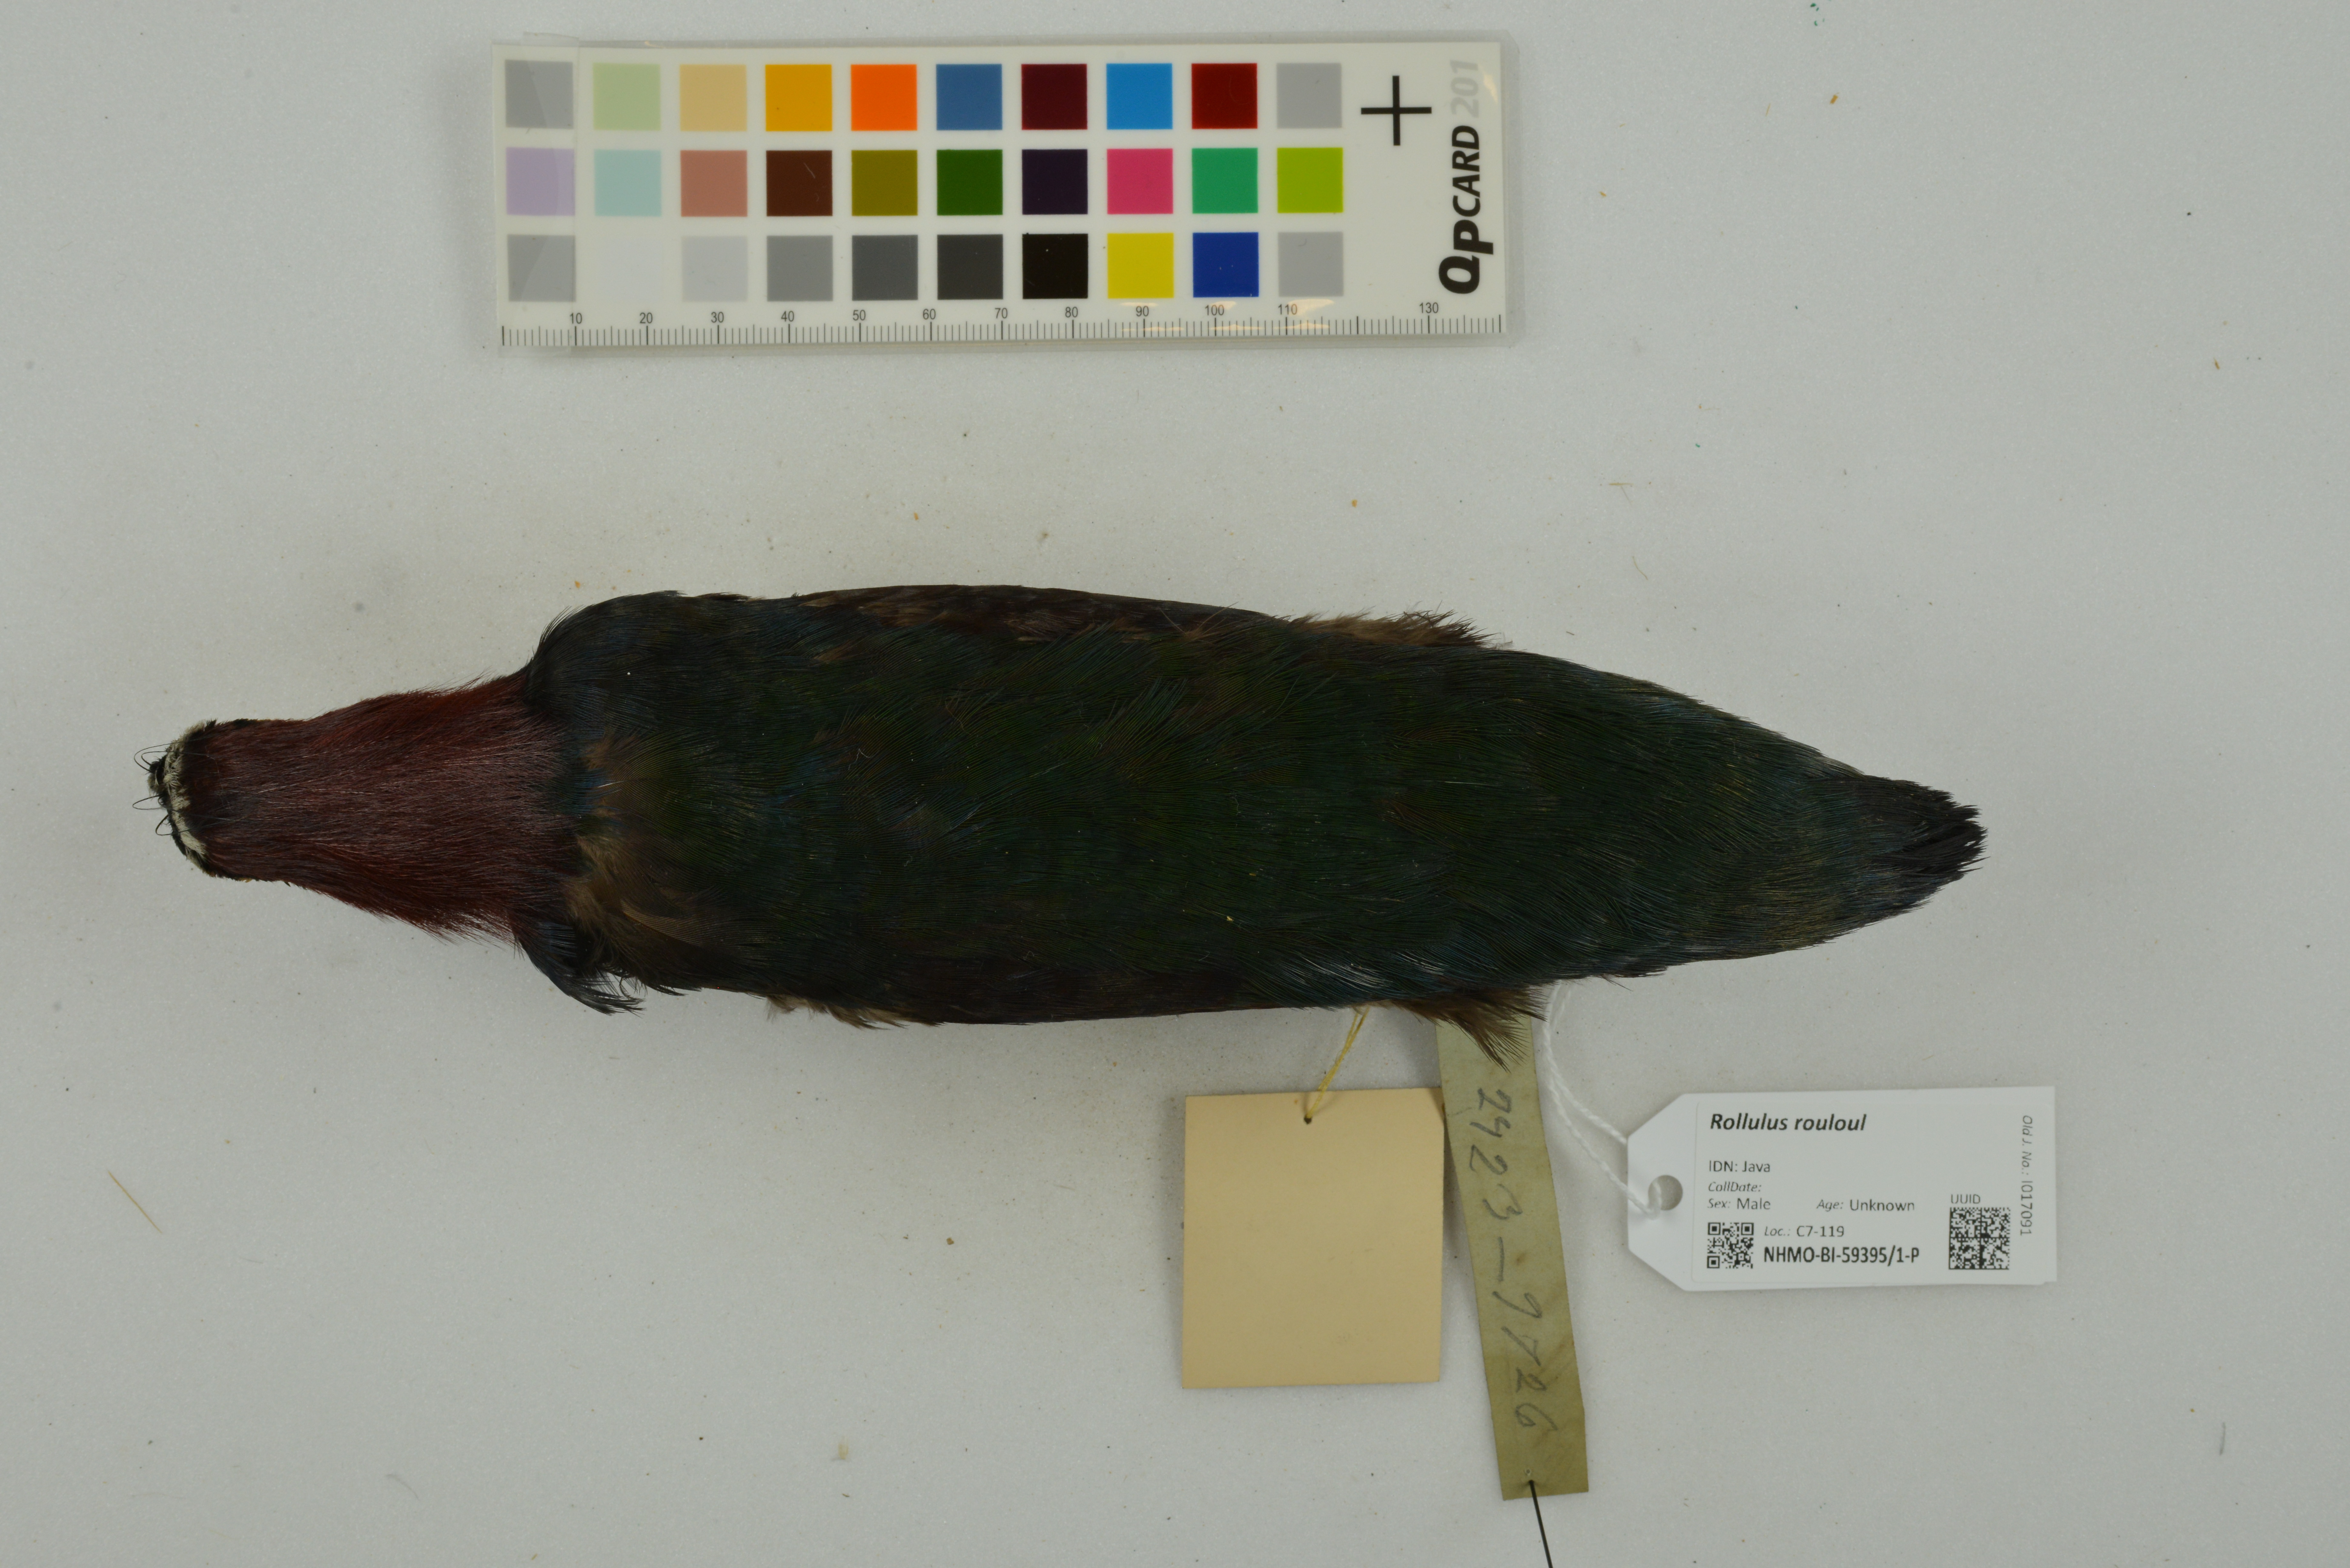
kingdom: Animalia
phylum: Chordata
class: Aves
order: Galliformes
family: Phasianidae
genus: Rollulus
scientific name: Rollulus rouloul
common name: Crested partridge
